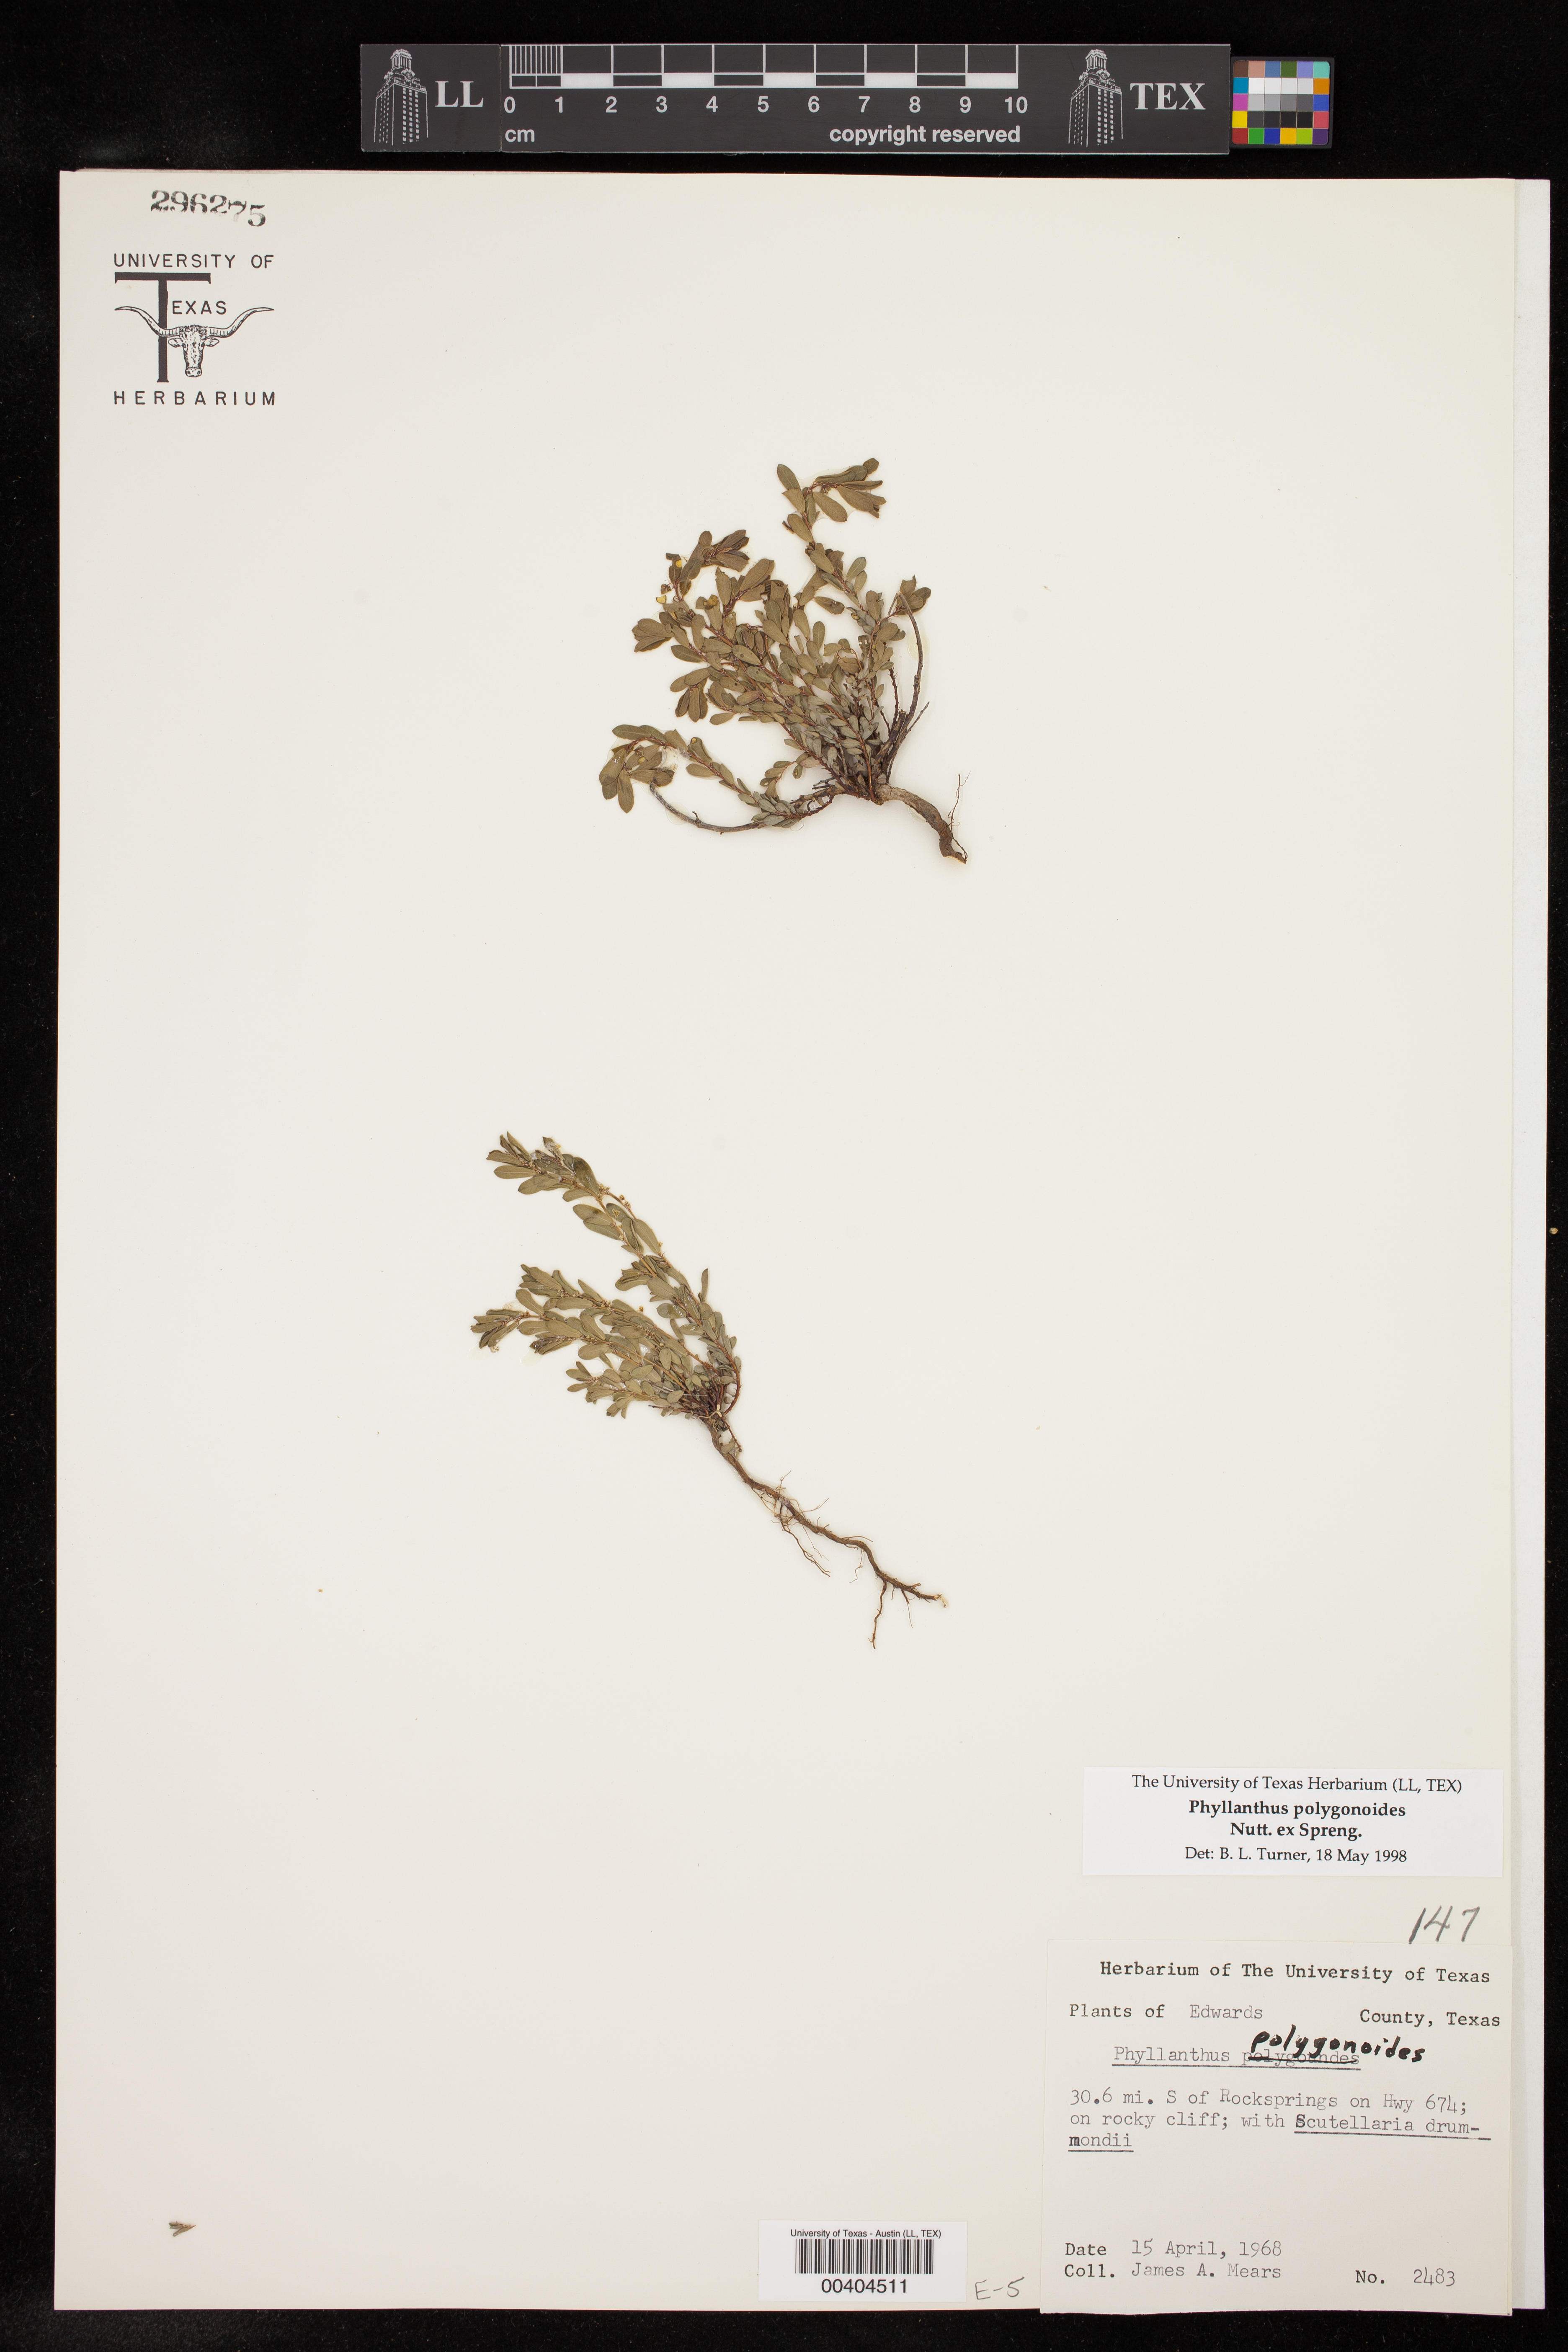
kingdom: Plantae
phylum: Tracheophyta
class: Magnoliopsida
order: Malpighiales
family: Phyllanthaceae
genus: Phyllanthus
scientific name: Phyllanthus polygonoides
